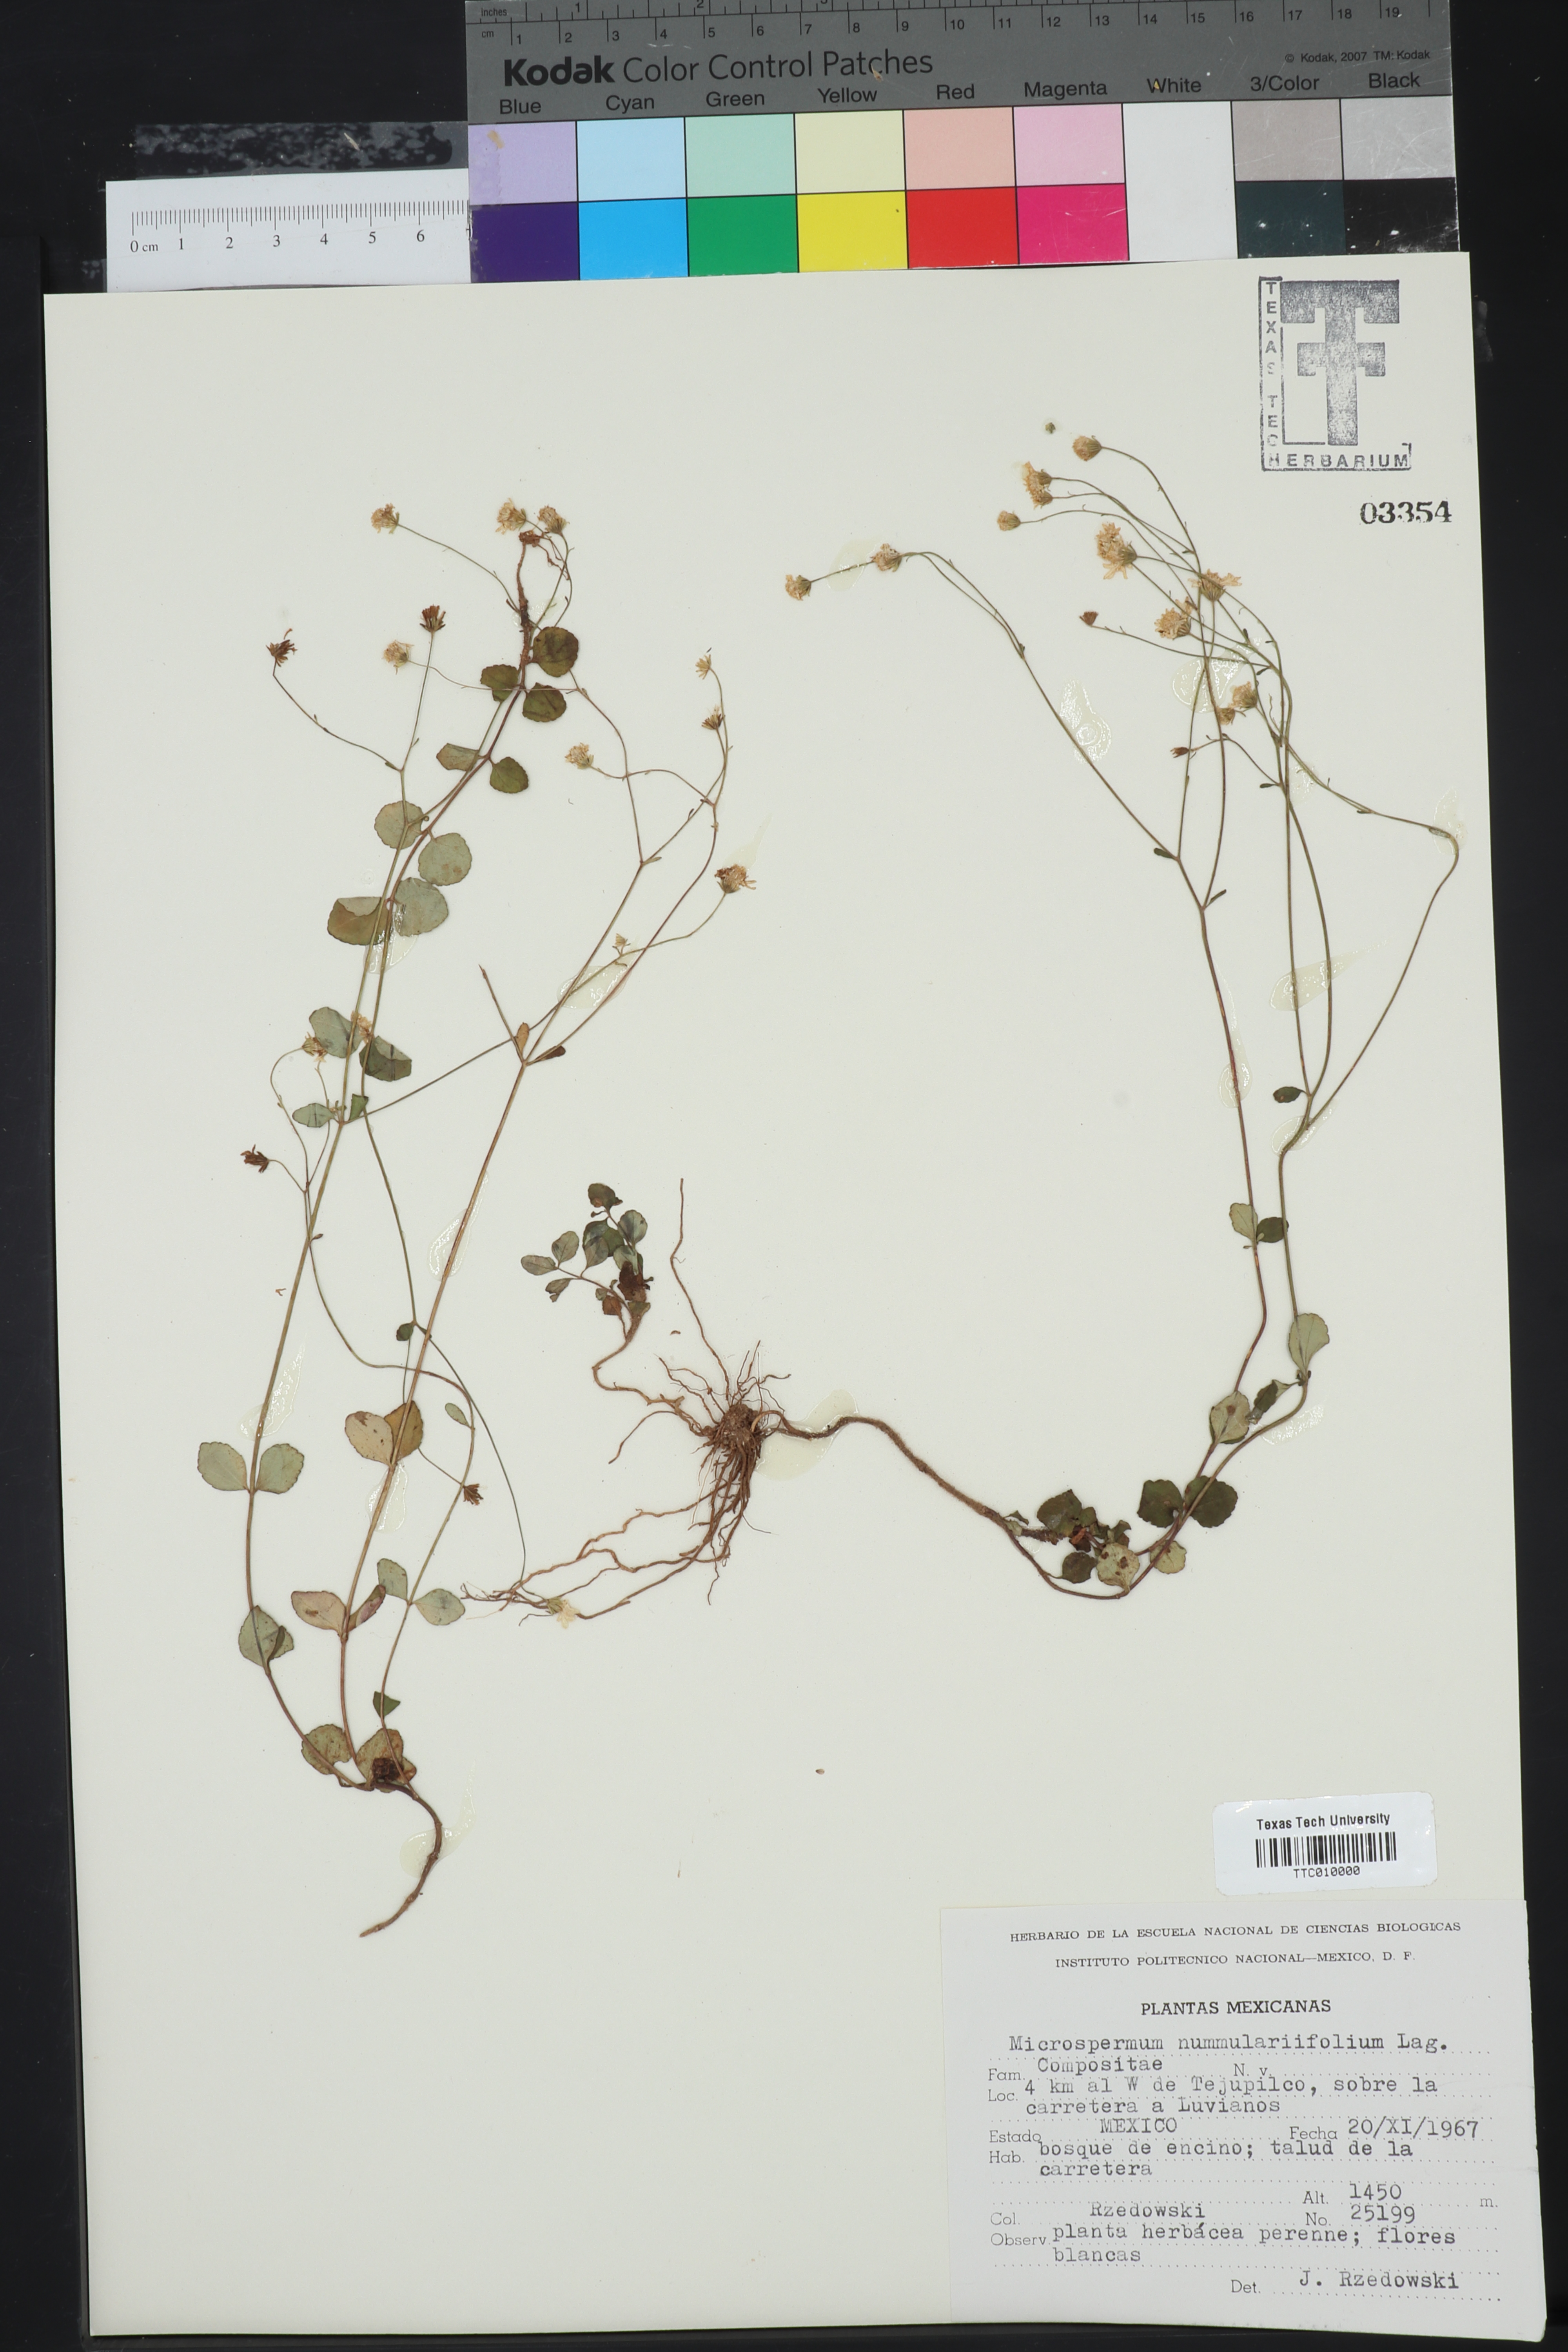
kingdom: Plantae
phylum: Tracheophyta
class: Magnoliopsida
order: Asterales
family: Asteraceae
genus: Microspermum
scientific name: Microspermum nummulariifolium
